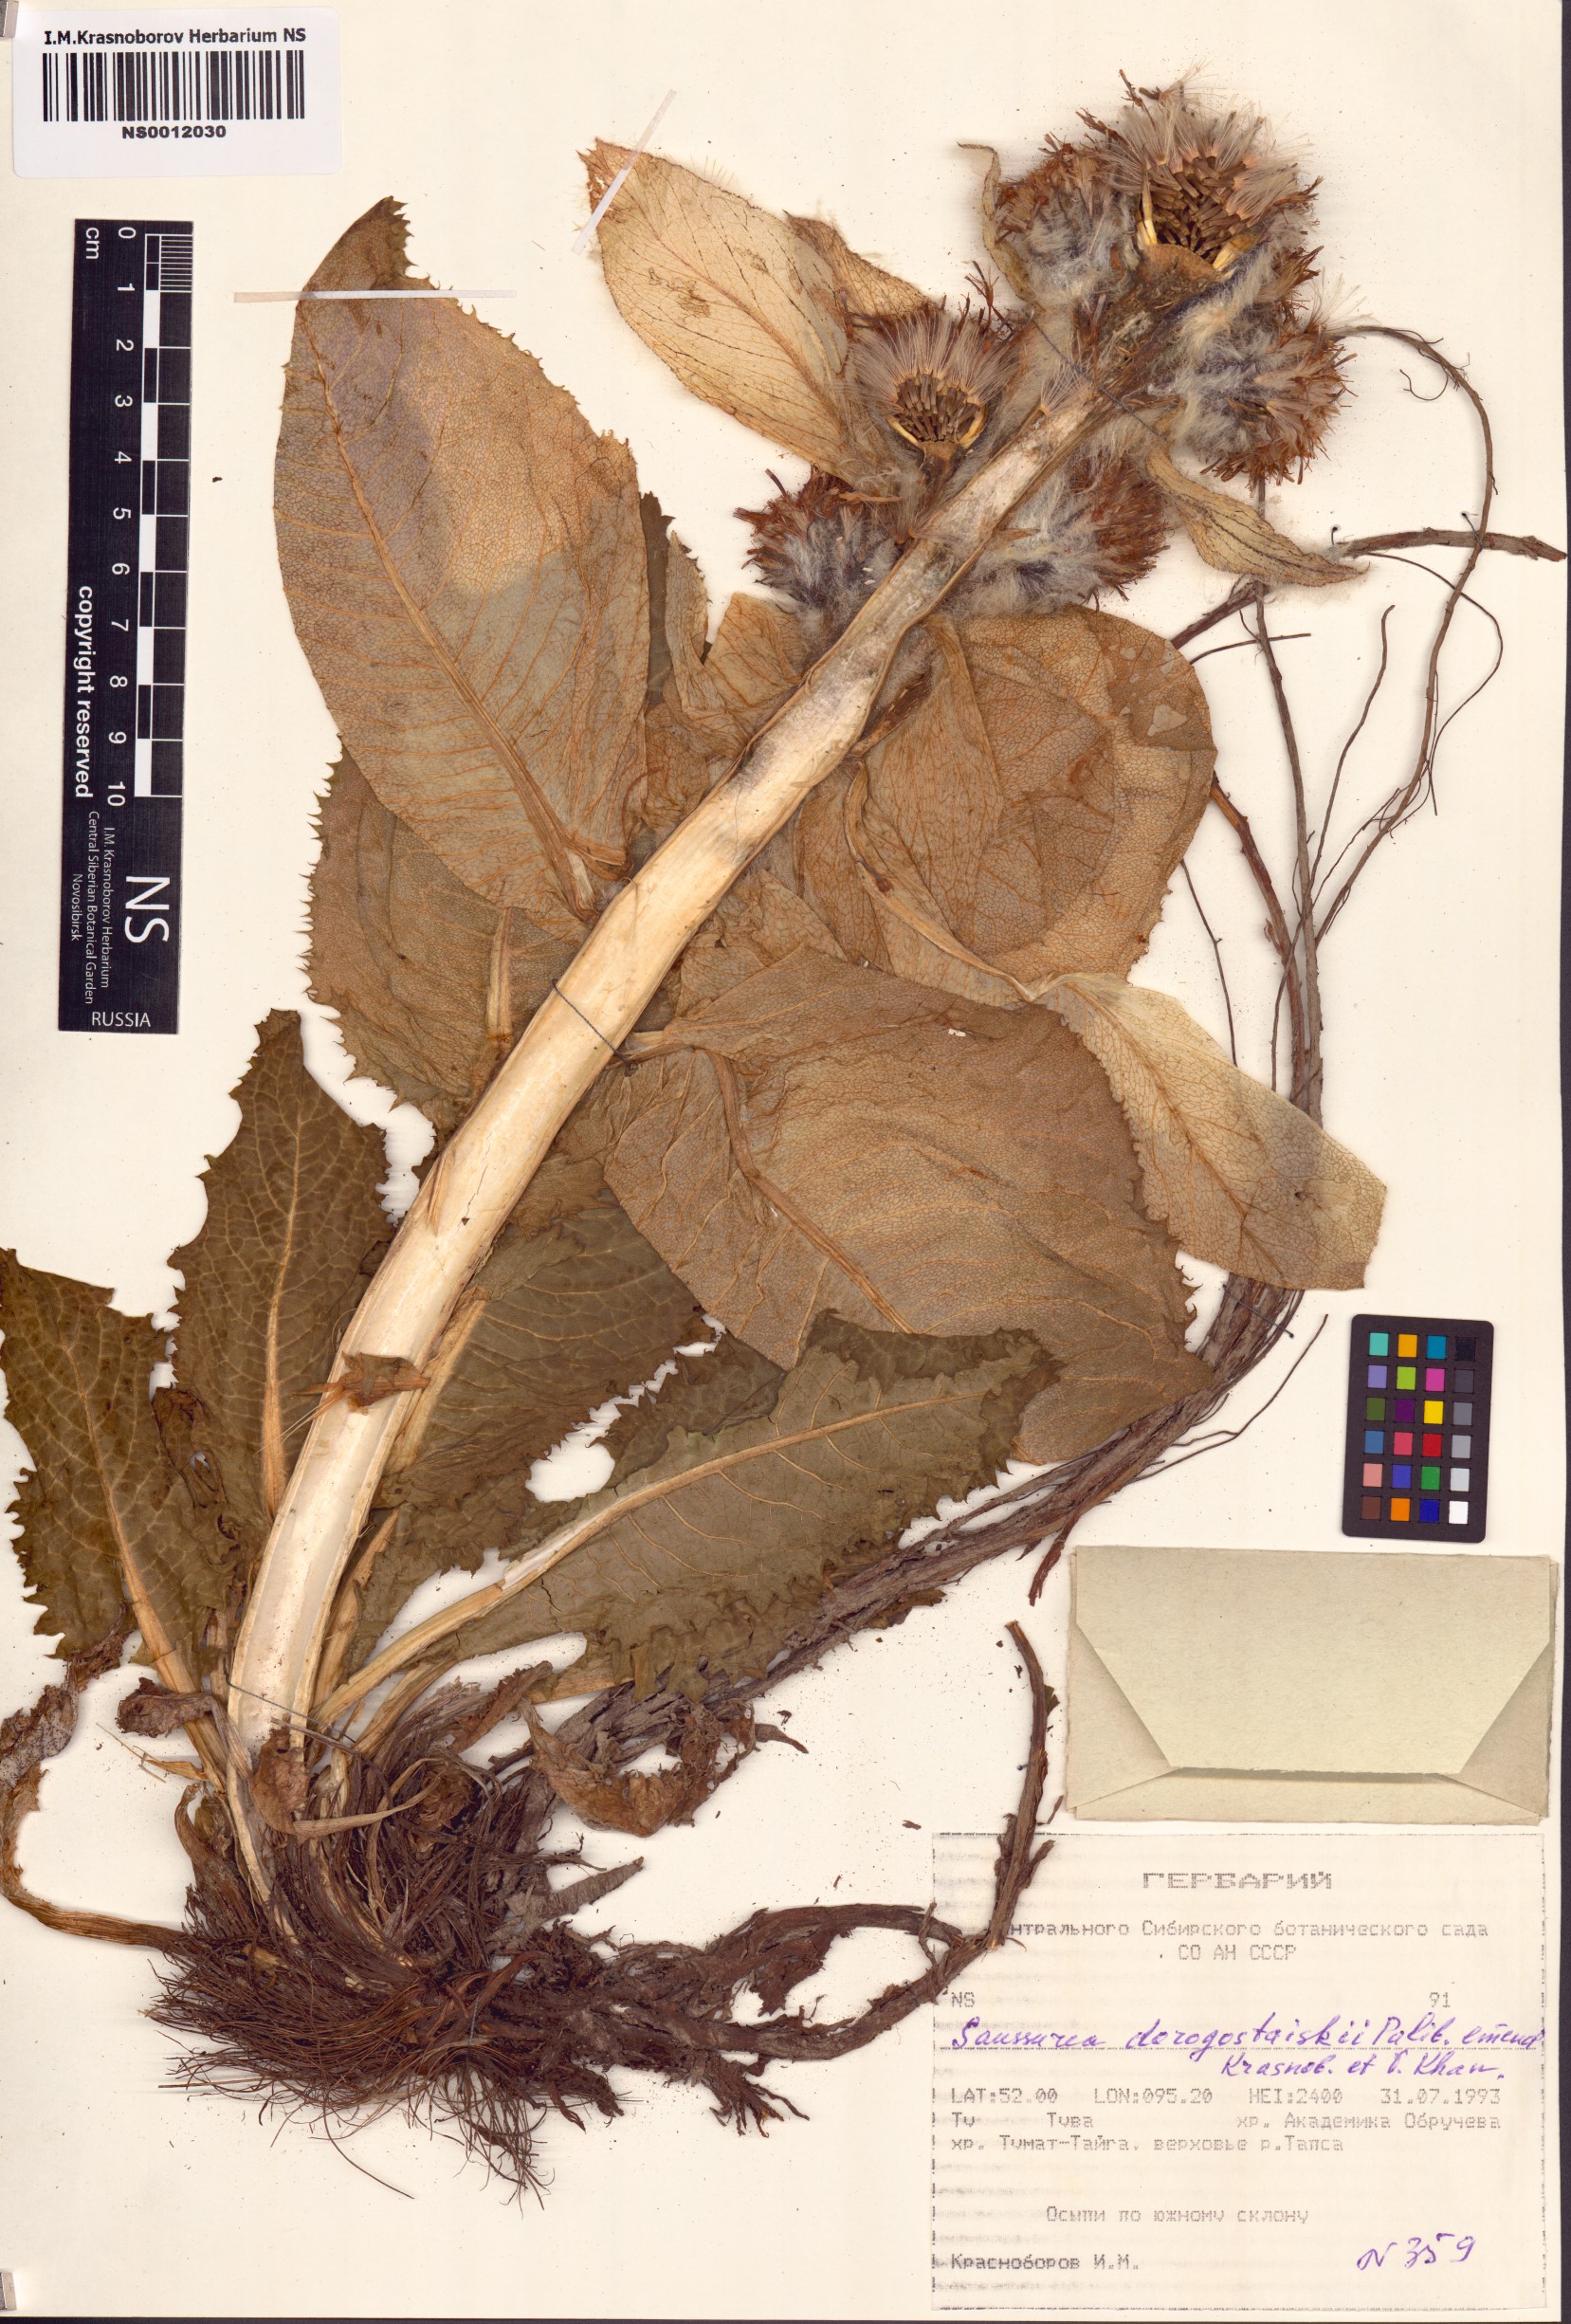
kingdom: Plantae
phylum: Tracheophyta
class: Magnoliopsida
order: Asterales
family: Asteraceae
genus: Saussurea
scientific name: Saussurea involucrata
